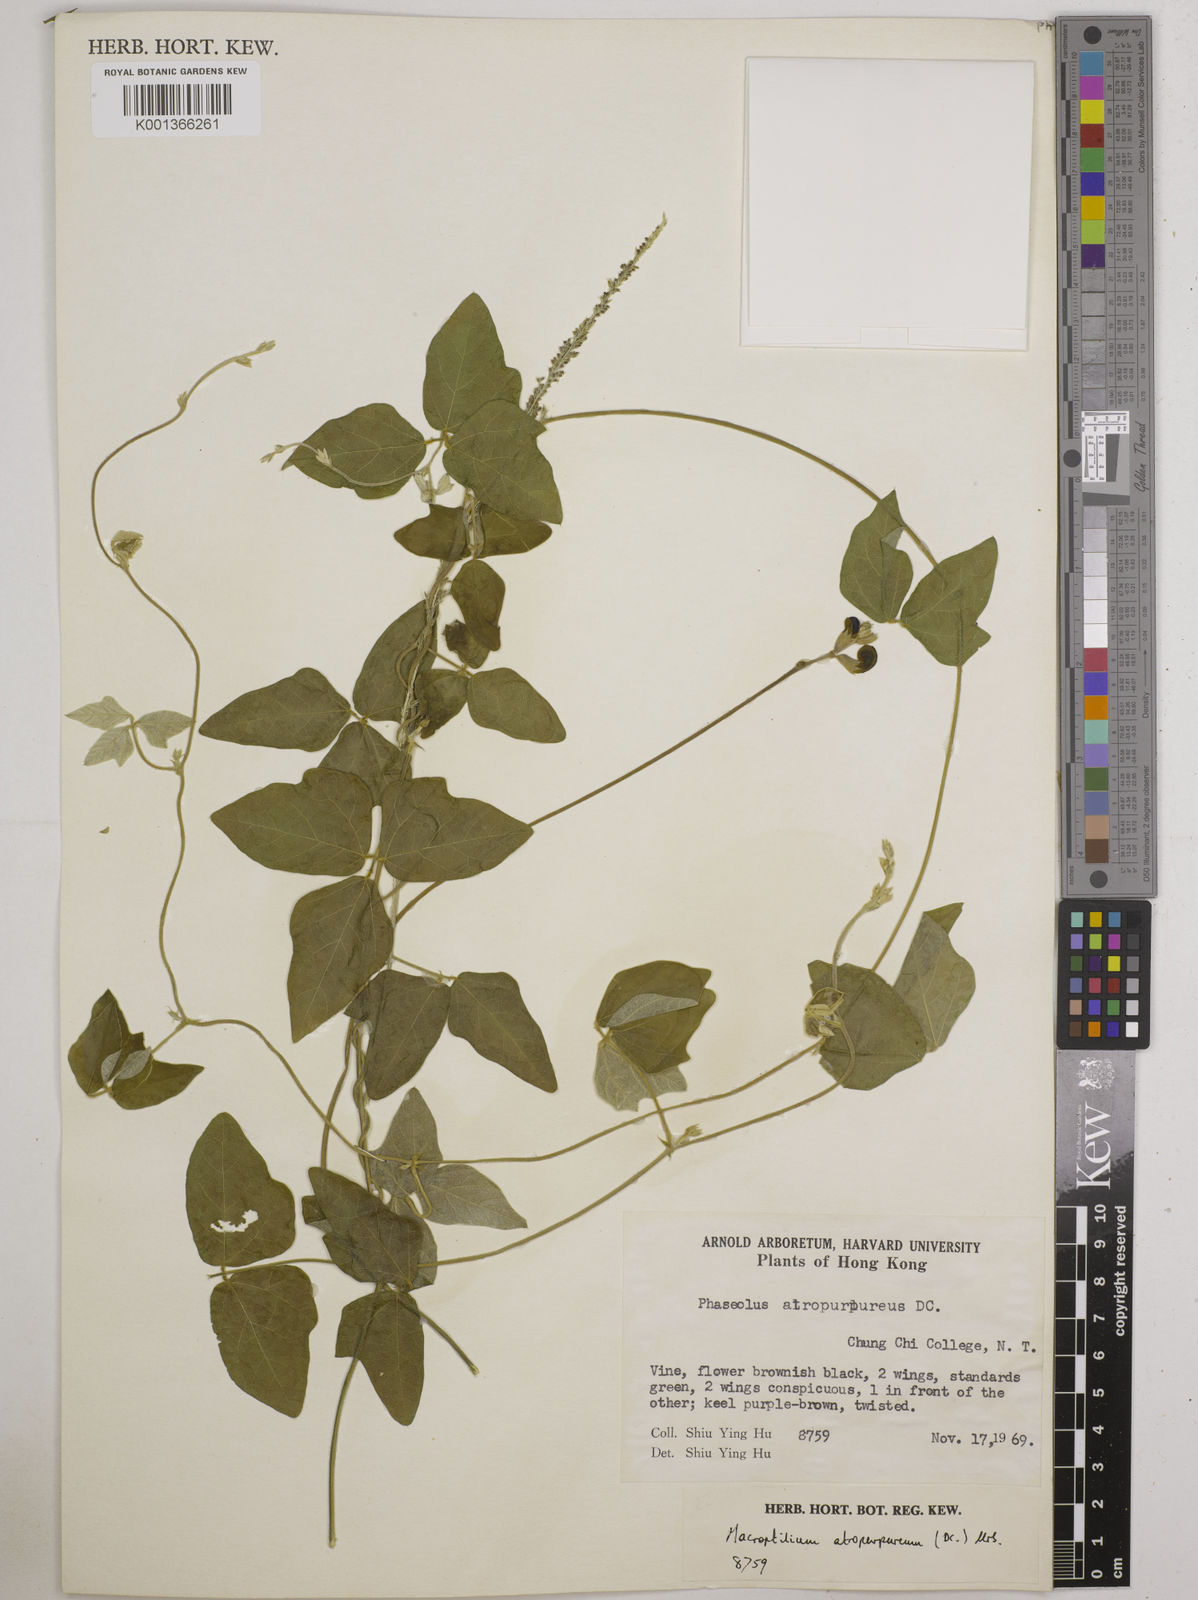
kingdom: Plantae
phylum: Tracheophyta
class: Magnoliopsida
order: Fabales
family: Fabaceae
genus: Macroptilium
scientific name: Macroptilium atropurpureum
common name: Purple bushbean
